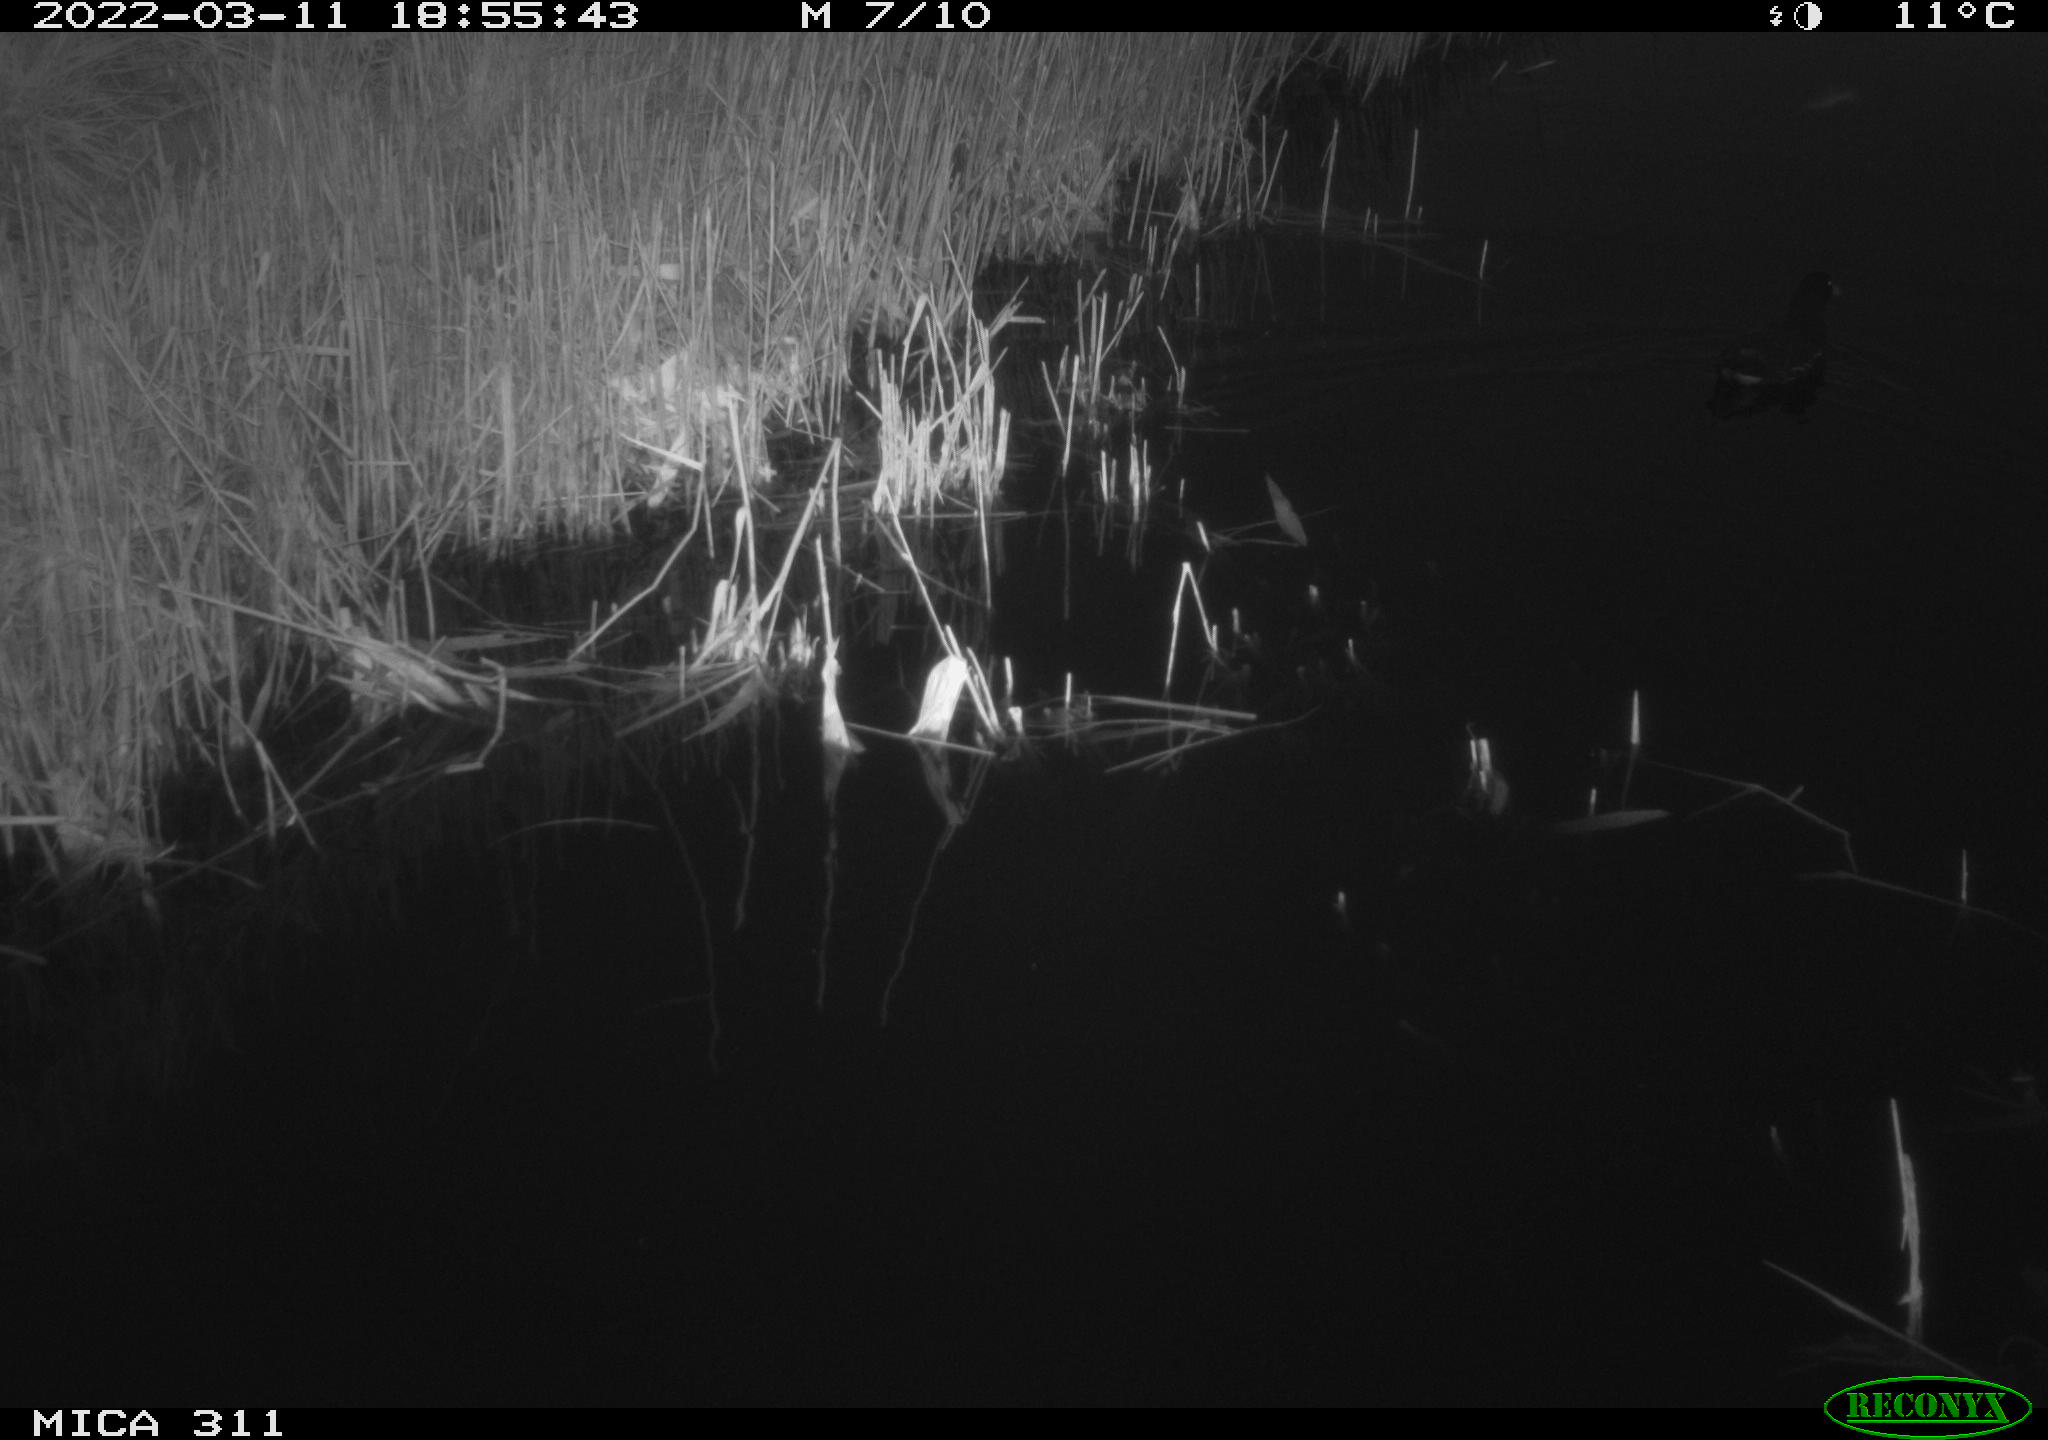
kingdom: Animalia
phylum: Chordata
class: Aves
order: Gruiformes
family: Rallidae
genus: Gallinula
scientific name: Gallinula chloropus
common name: Common moorhen
